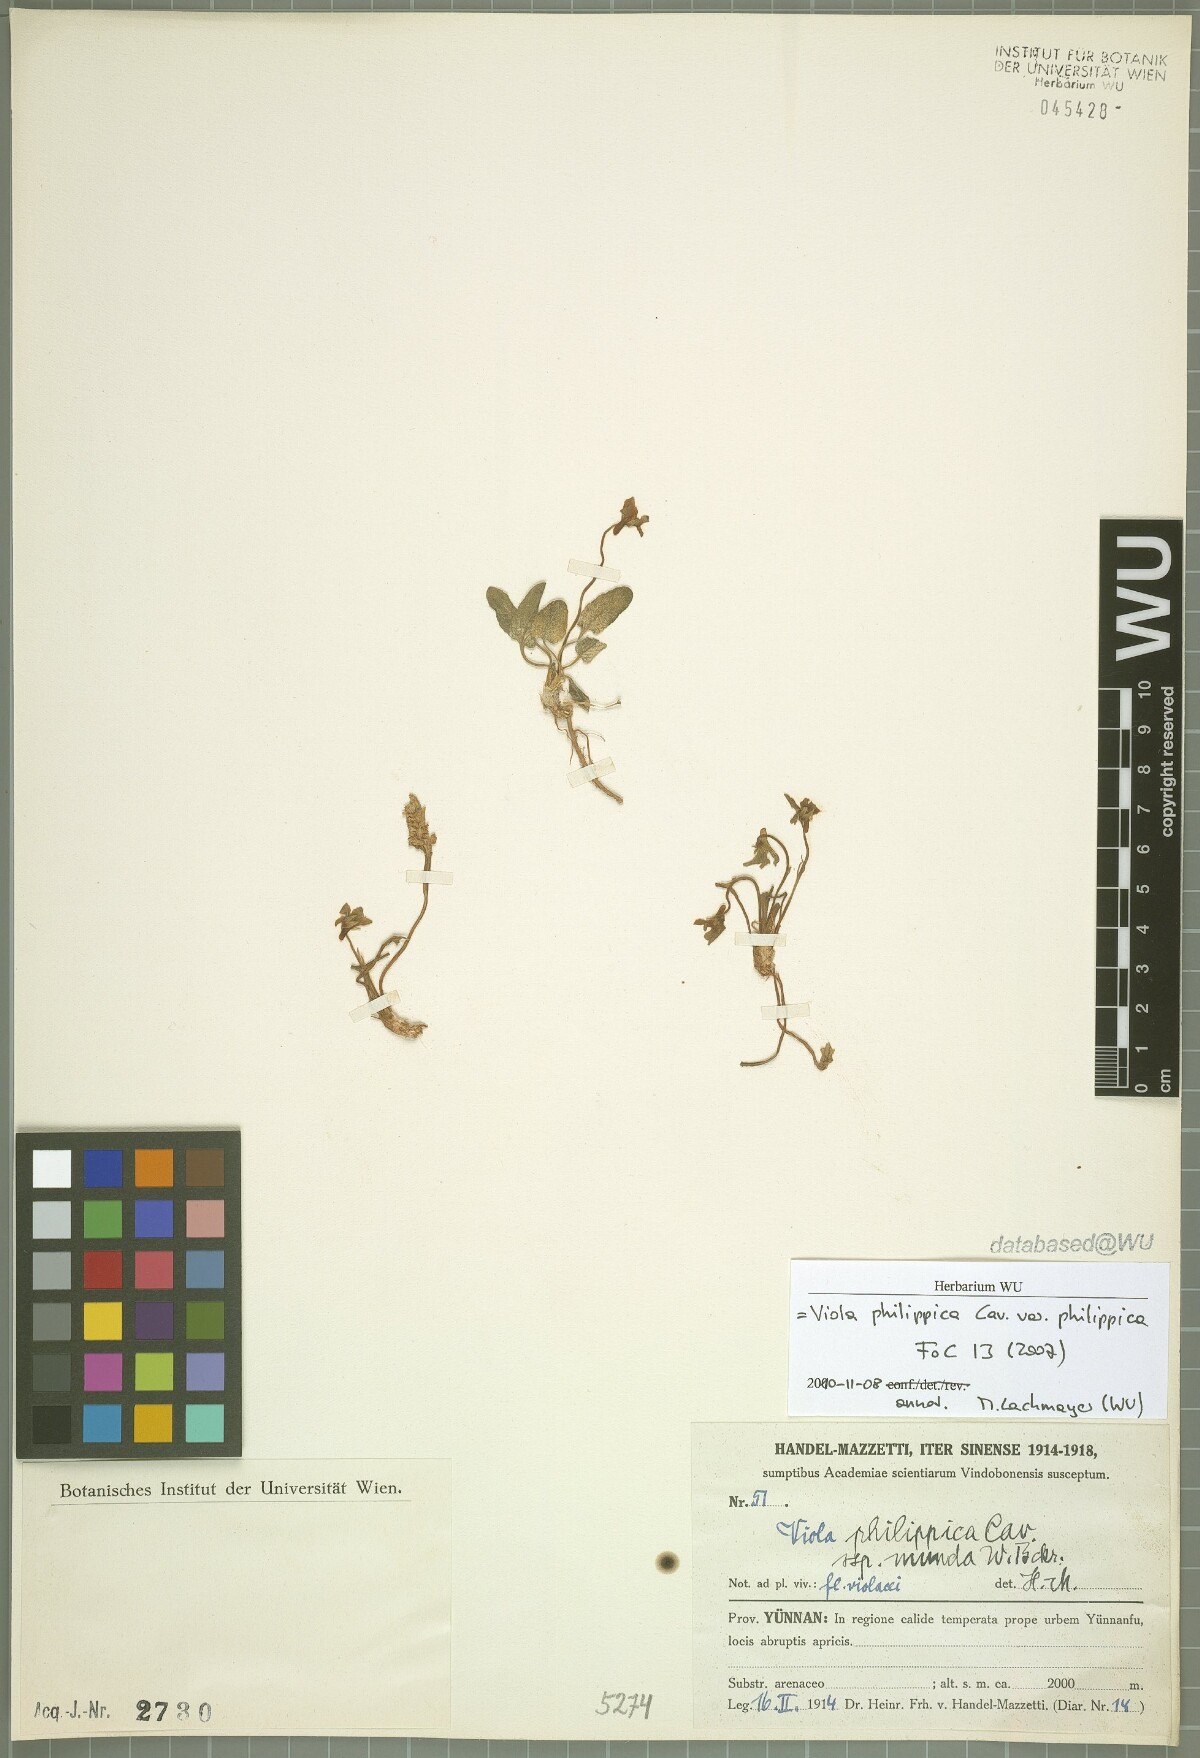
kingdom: Plantae
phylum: Tracheophyta
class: Magnoliopsida
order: Malpighiales
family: Violaceae
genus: Viola
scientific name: Viola philippica
